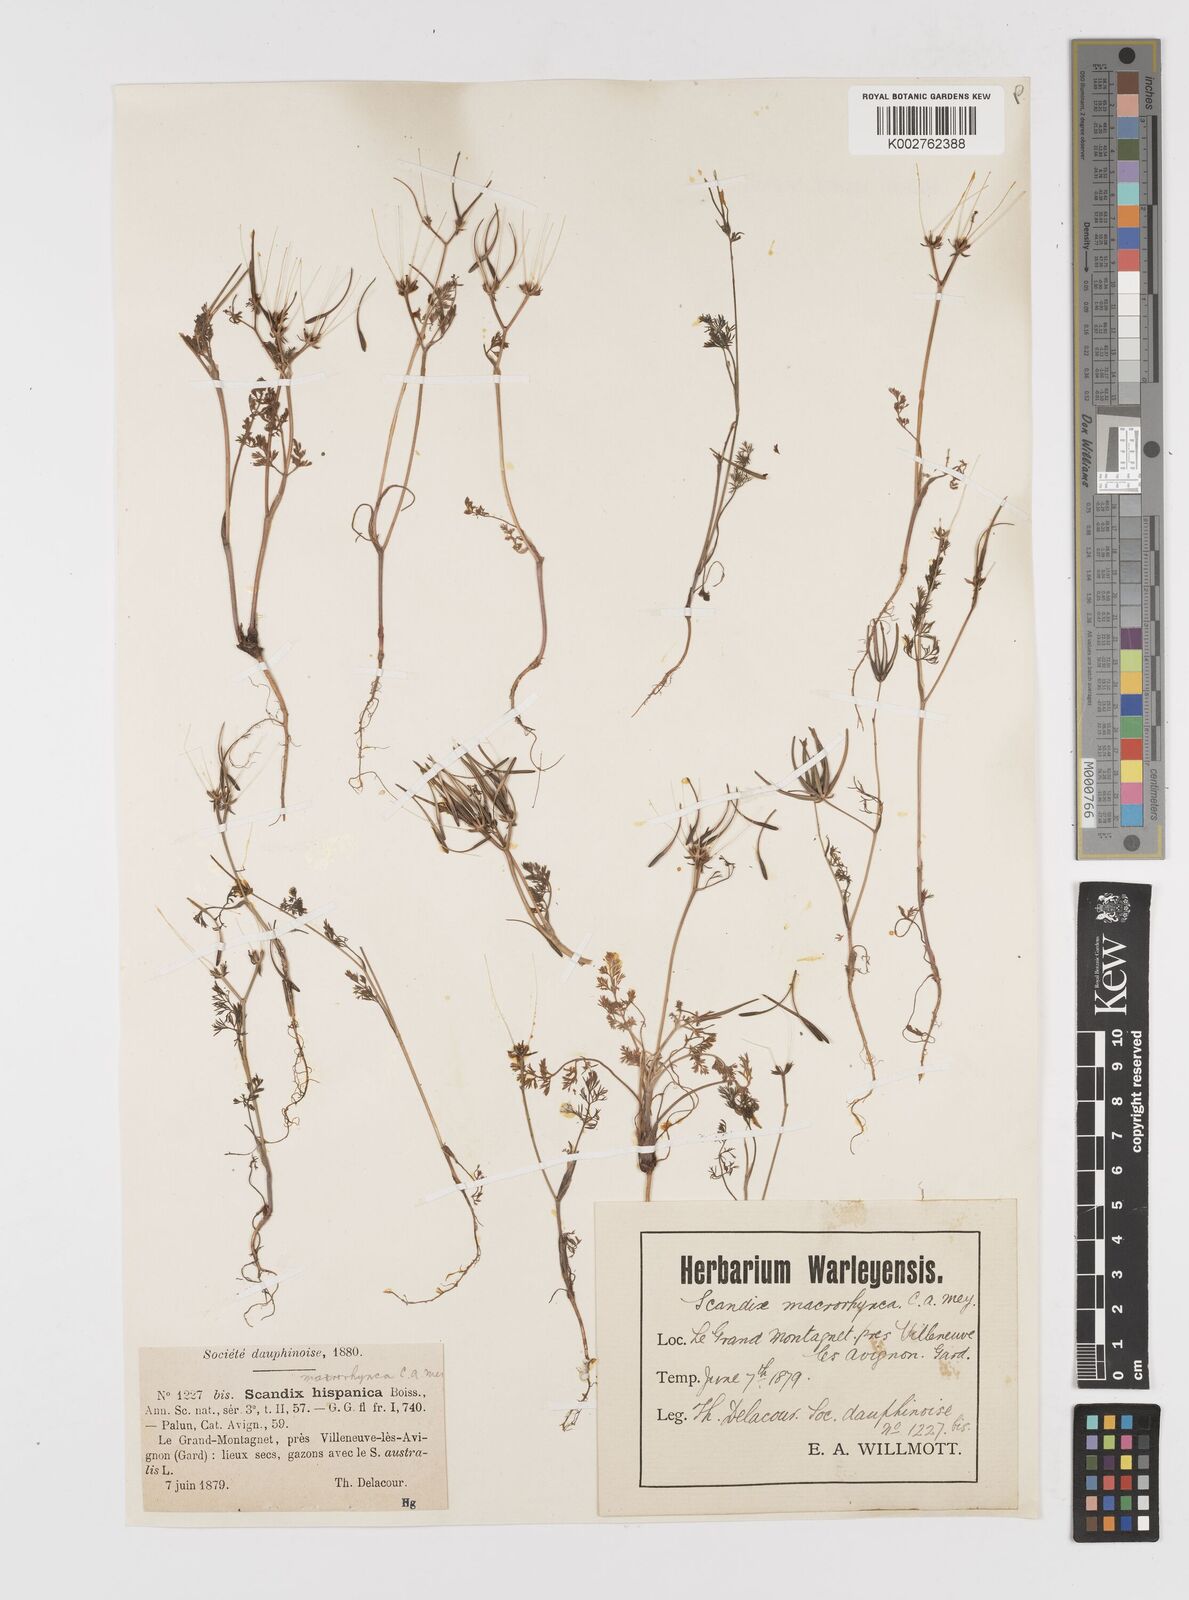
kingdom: Plantae
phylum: Tracheophyta
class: Magnoliopsida
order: Apiales
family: Apiaceae
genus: Scandix
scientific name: Scandix pecten-veneris
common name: Shepherd's-needle
